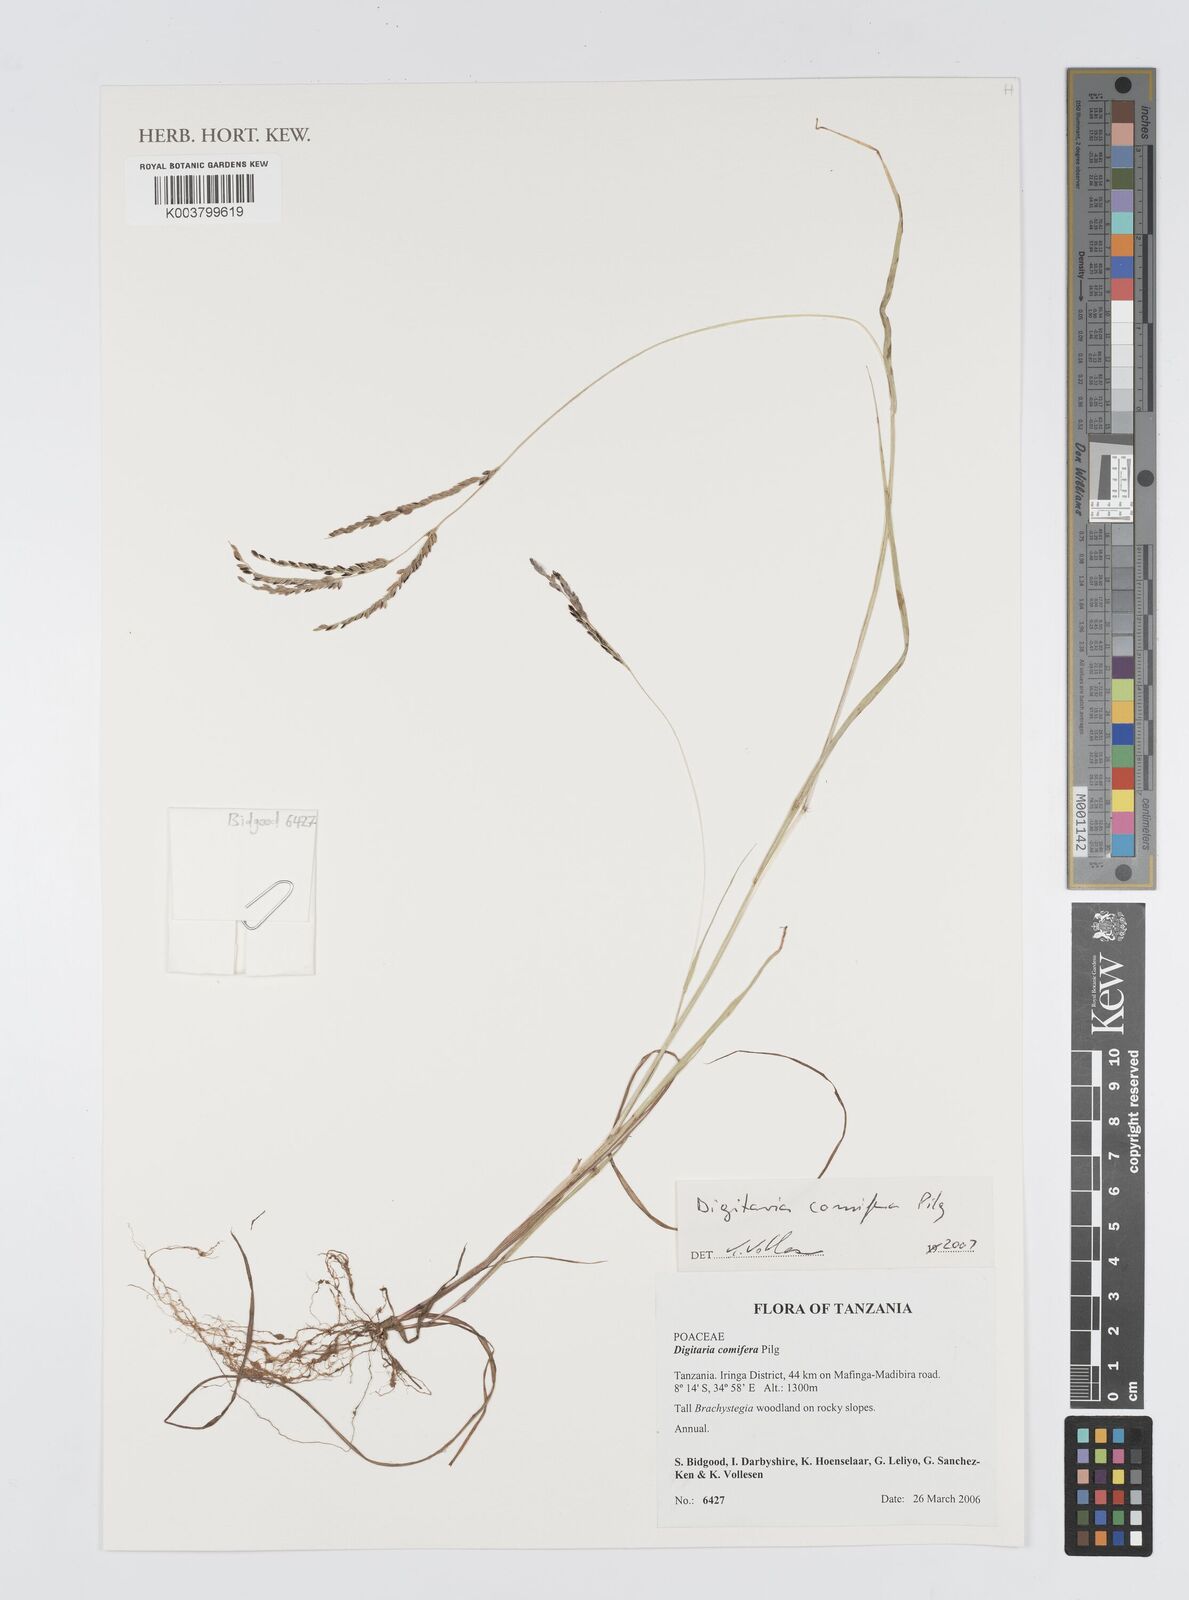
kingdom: Plantae
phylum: Tracheophyta
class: Liliopsida
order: Poales
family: Poaceae
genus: Digitaria
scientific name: Digitaria comifera
